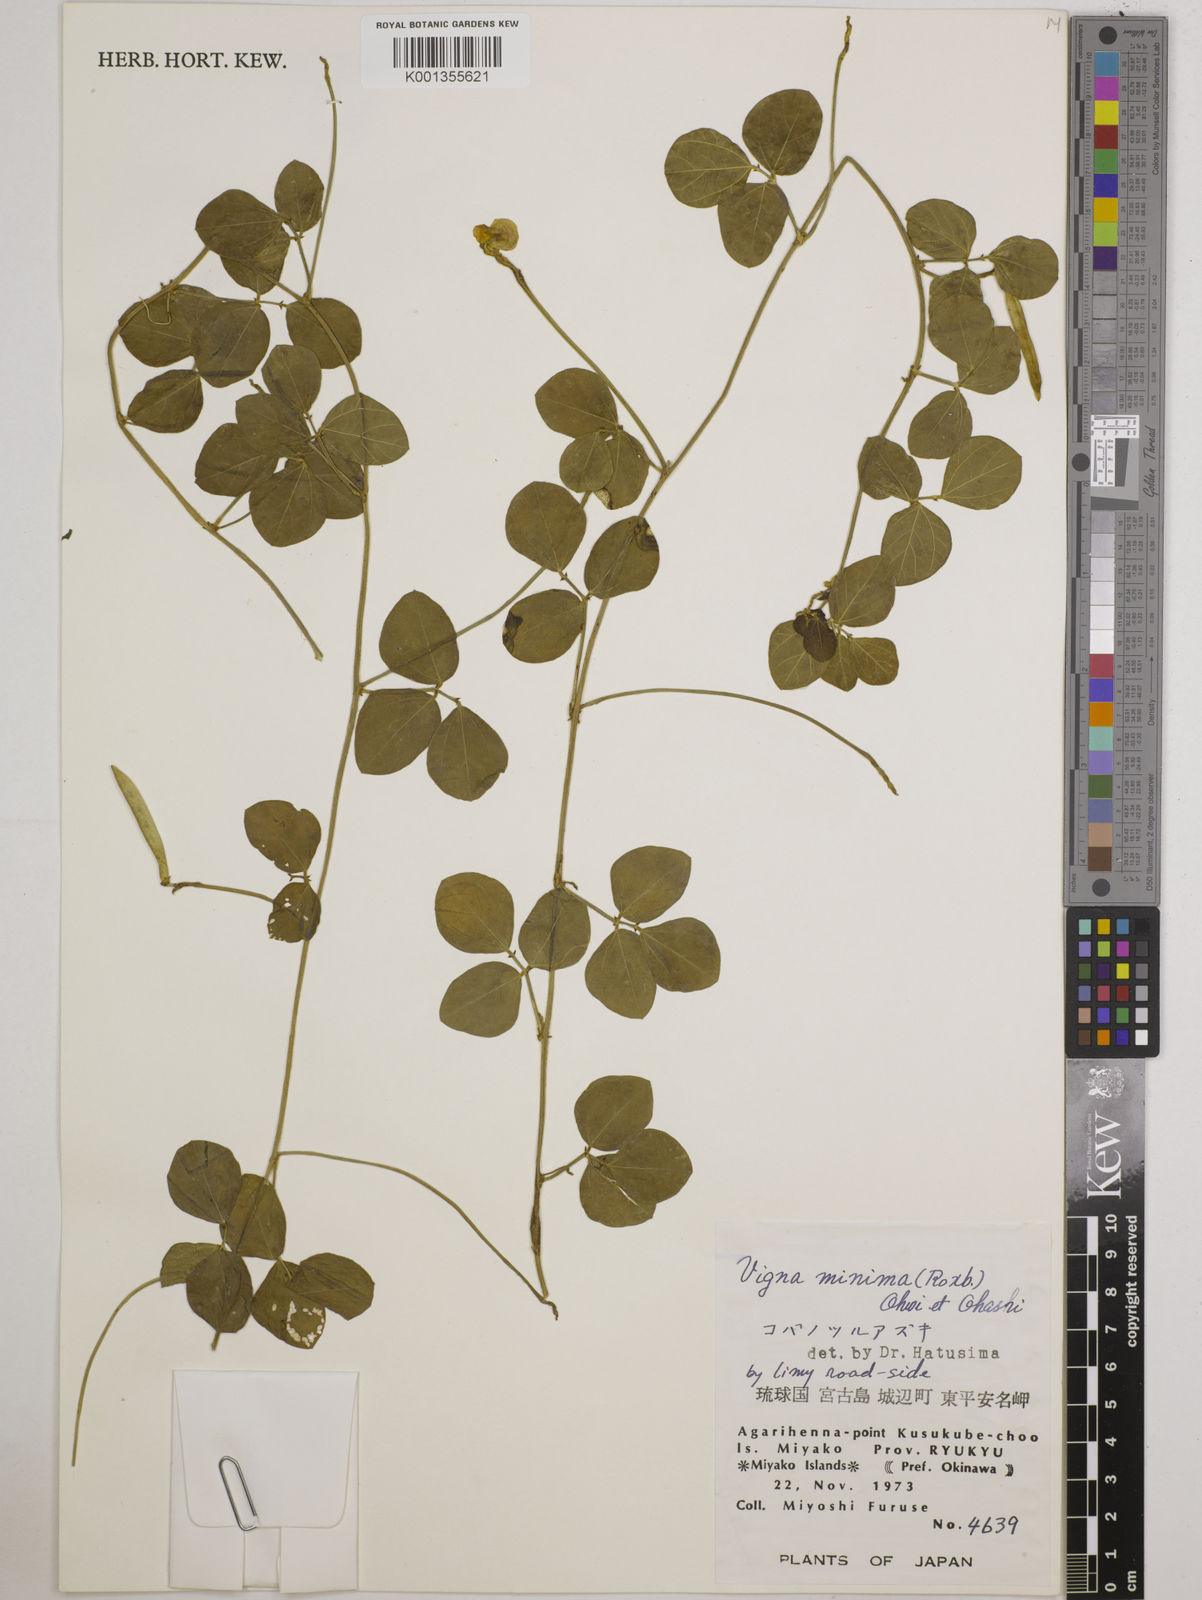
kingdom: Plantae
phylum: Tracheophyta
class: Magnoliopsida
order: Fabales
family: Fabaceae
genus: Vigna
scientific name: Vigna minima
